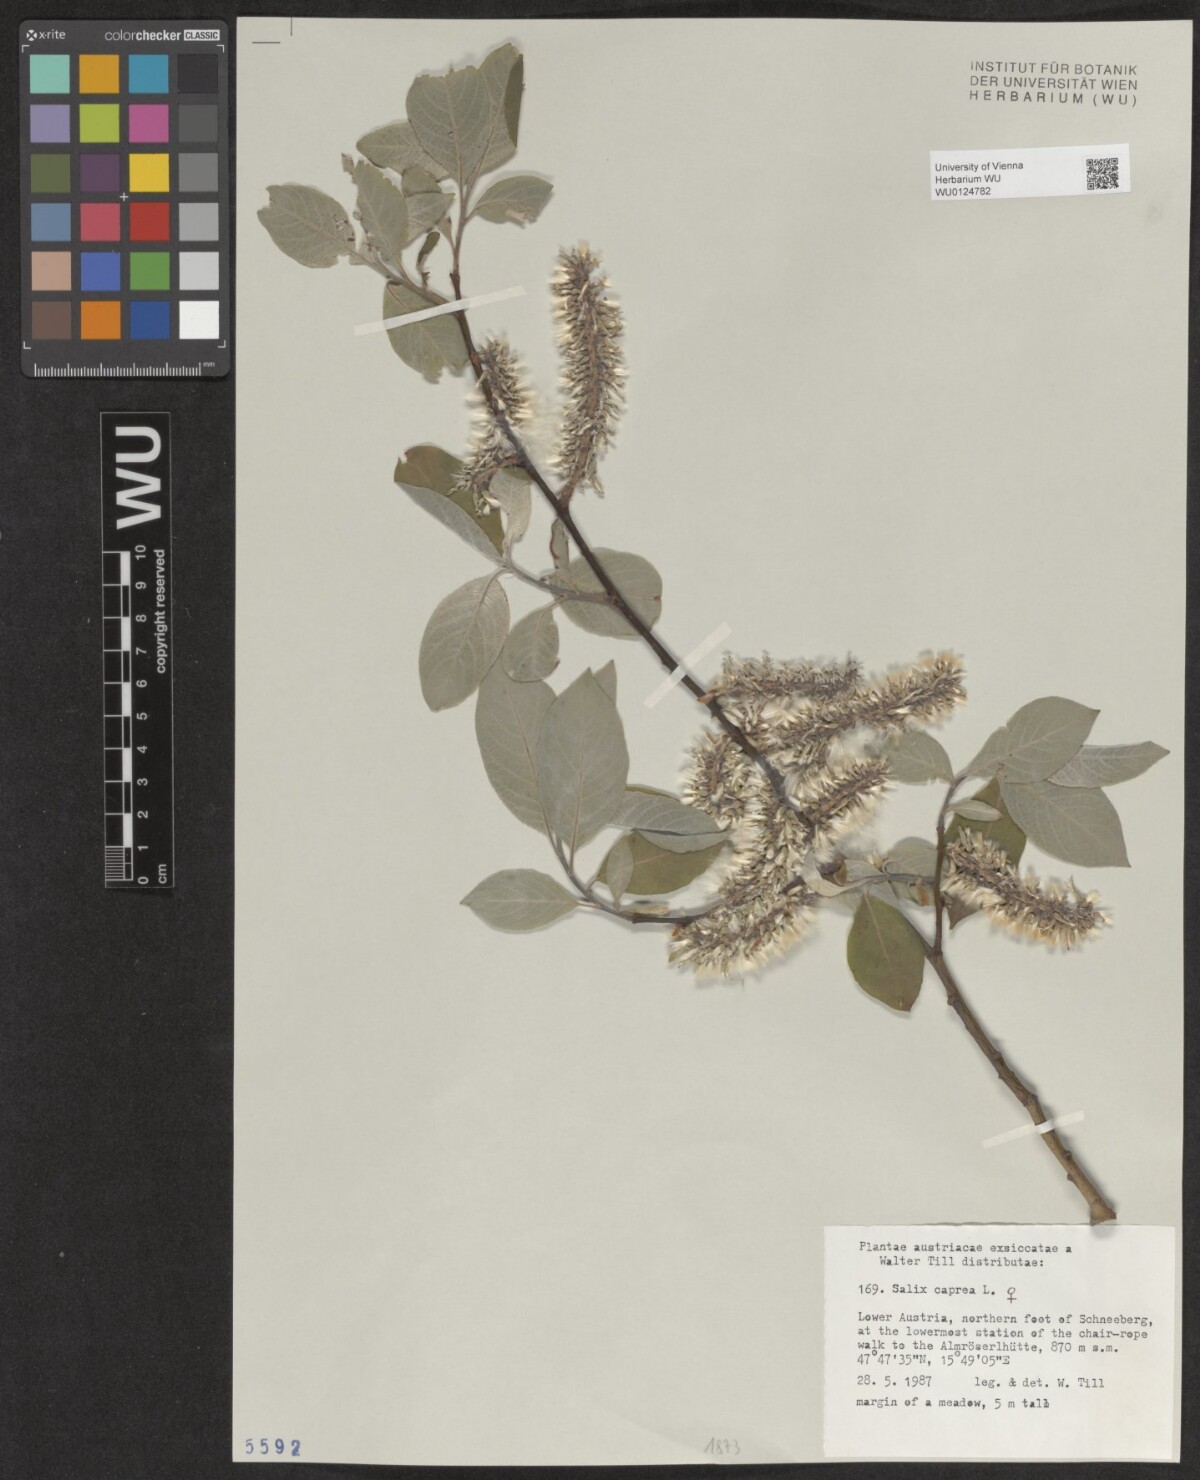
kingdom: Plantae
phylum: Tracheophyta
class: Magnoliopsida
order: Malpighiales
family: Salicaceae
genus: Salix
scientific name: Salix caprea
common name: Goat willow
